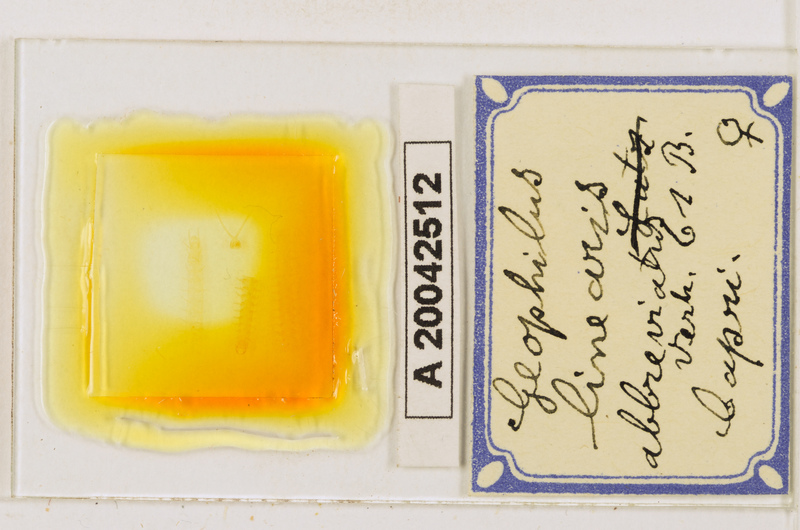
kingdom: Animalia
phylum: Arthropoda
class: Chilopoda
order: Geophilomorpha
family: Geophilidae
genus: Stenotaenia
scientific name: Stenotaenia sorrentina
